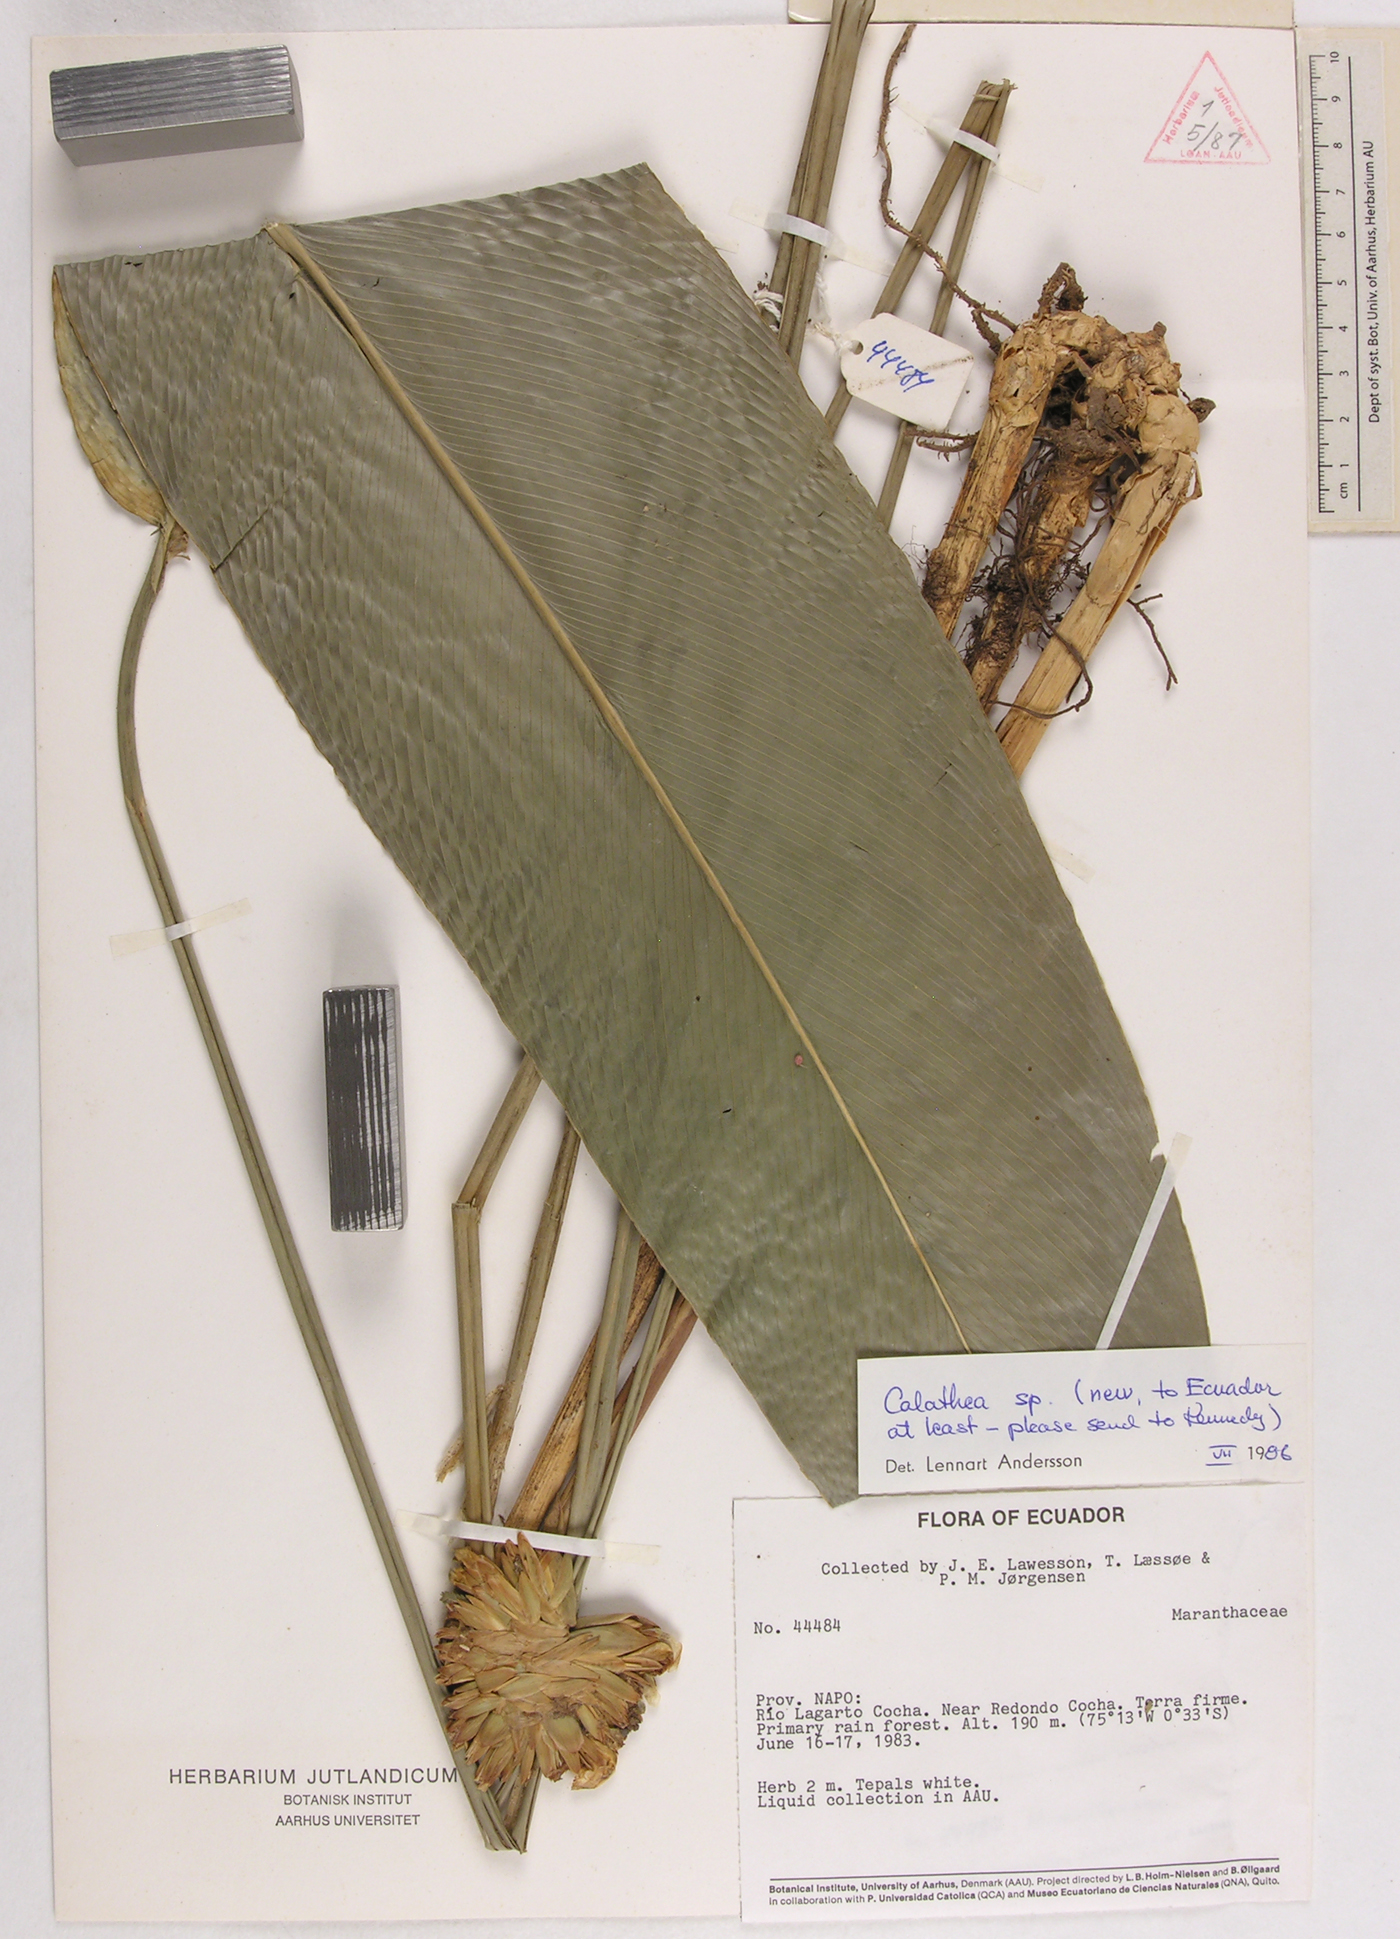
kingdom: Plantae
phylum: Tracheophyta
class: Magnoliopsida
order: Laurales
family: Lauraceae
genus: Goeppertia
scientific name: Goeppertia
